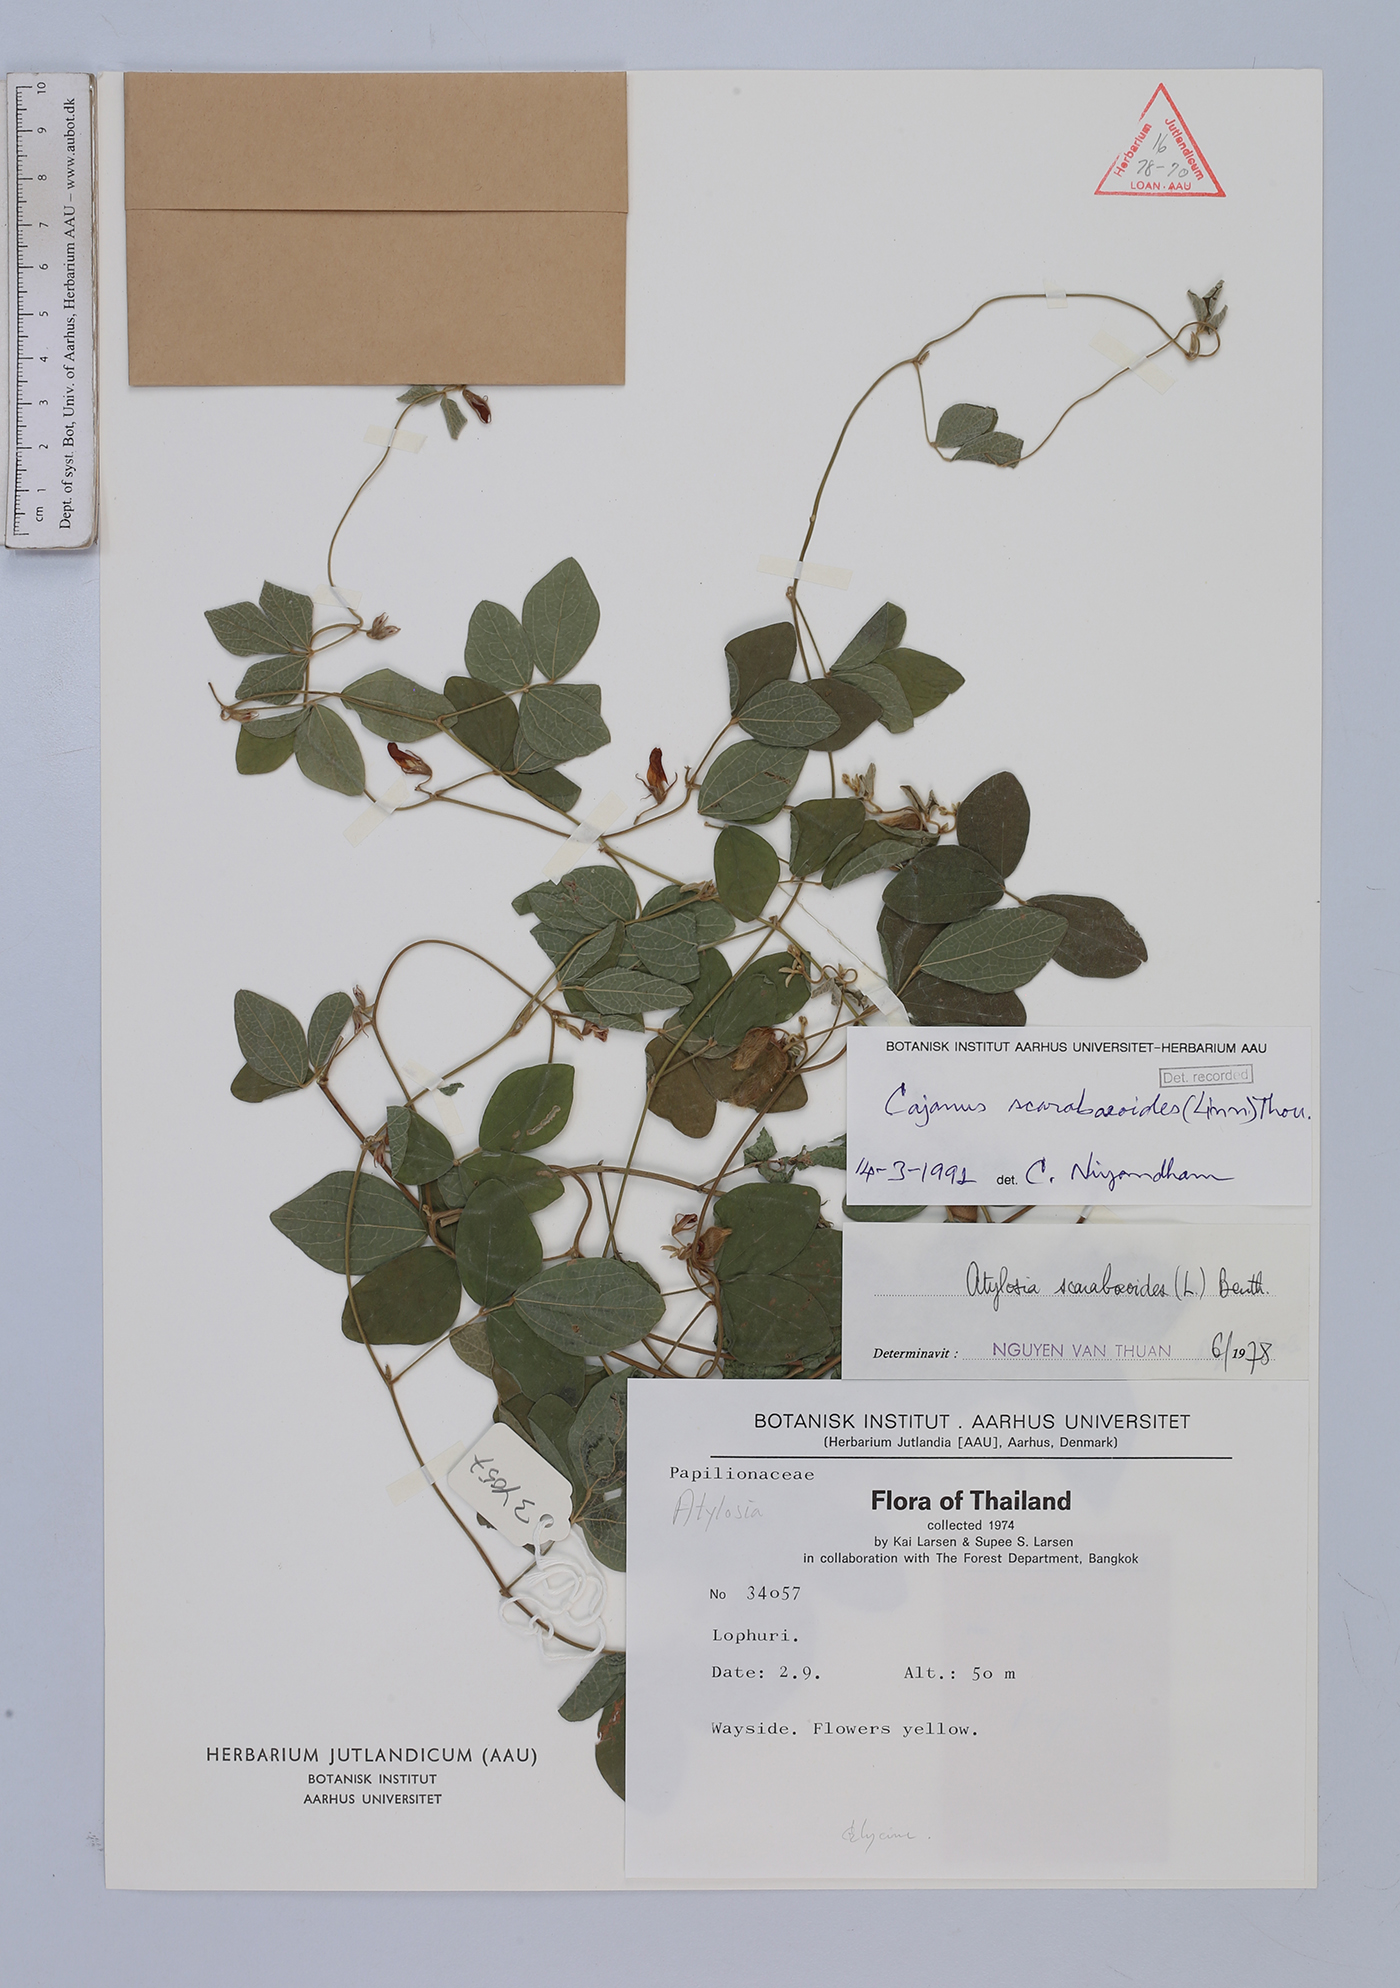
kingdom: Plantae
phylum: Tracheophyta
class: Magnoliopsida
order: Fabales
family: Fabaceae
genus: Cajanus
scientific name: Cajanus scarabaeoides
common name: Showy pigeonpea
